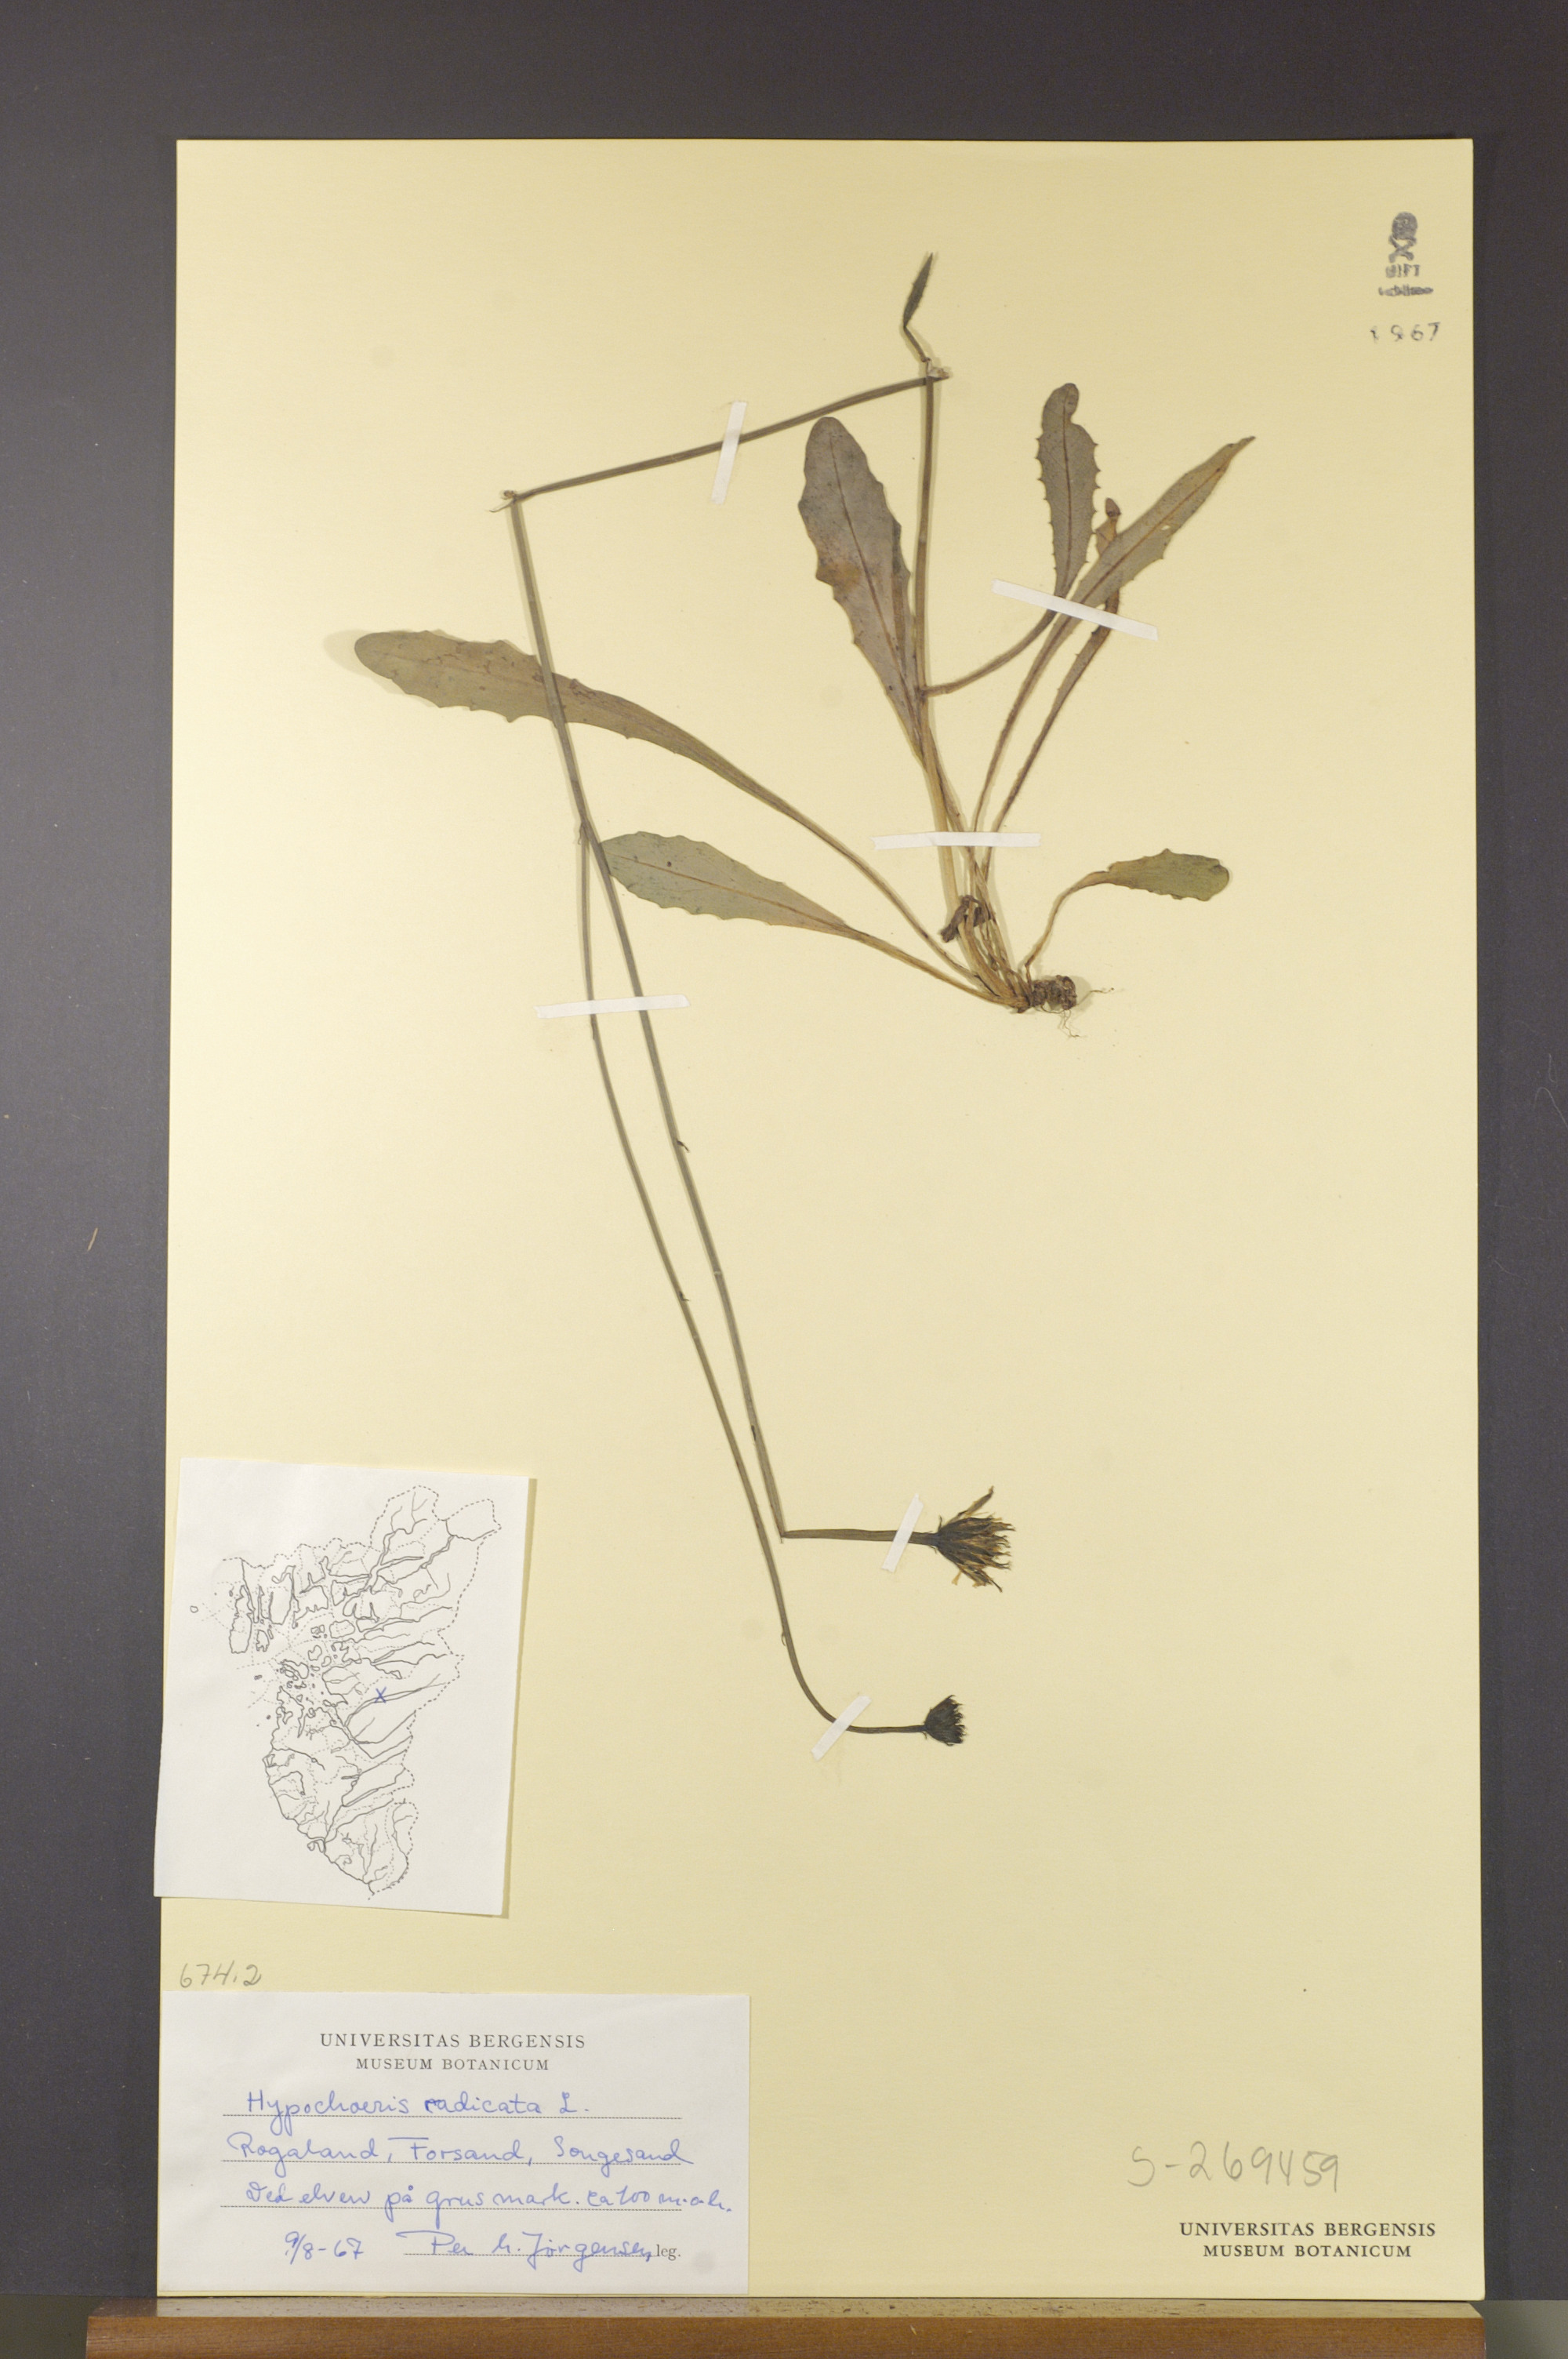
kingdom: Plantae
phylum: Tracheophyta
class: Magnoliopsida
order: Asterales
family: Asteraceae
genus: Hypochaeris
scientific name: Hypochaeris radicata
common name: Flatweed
